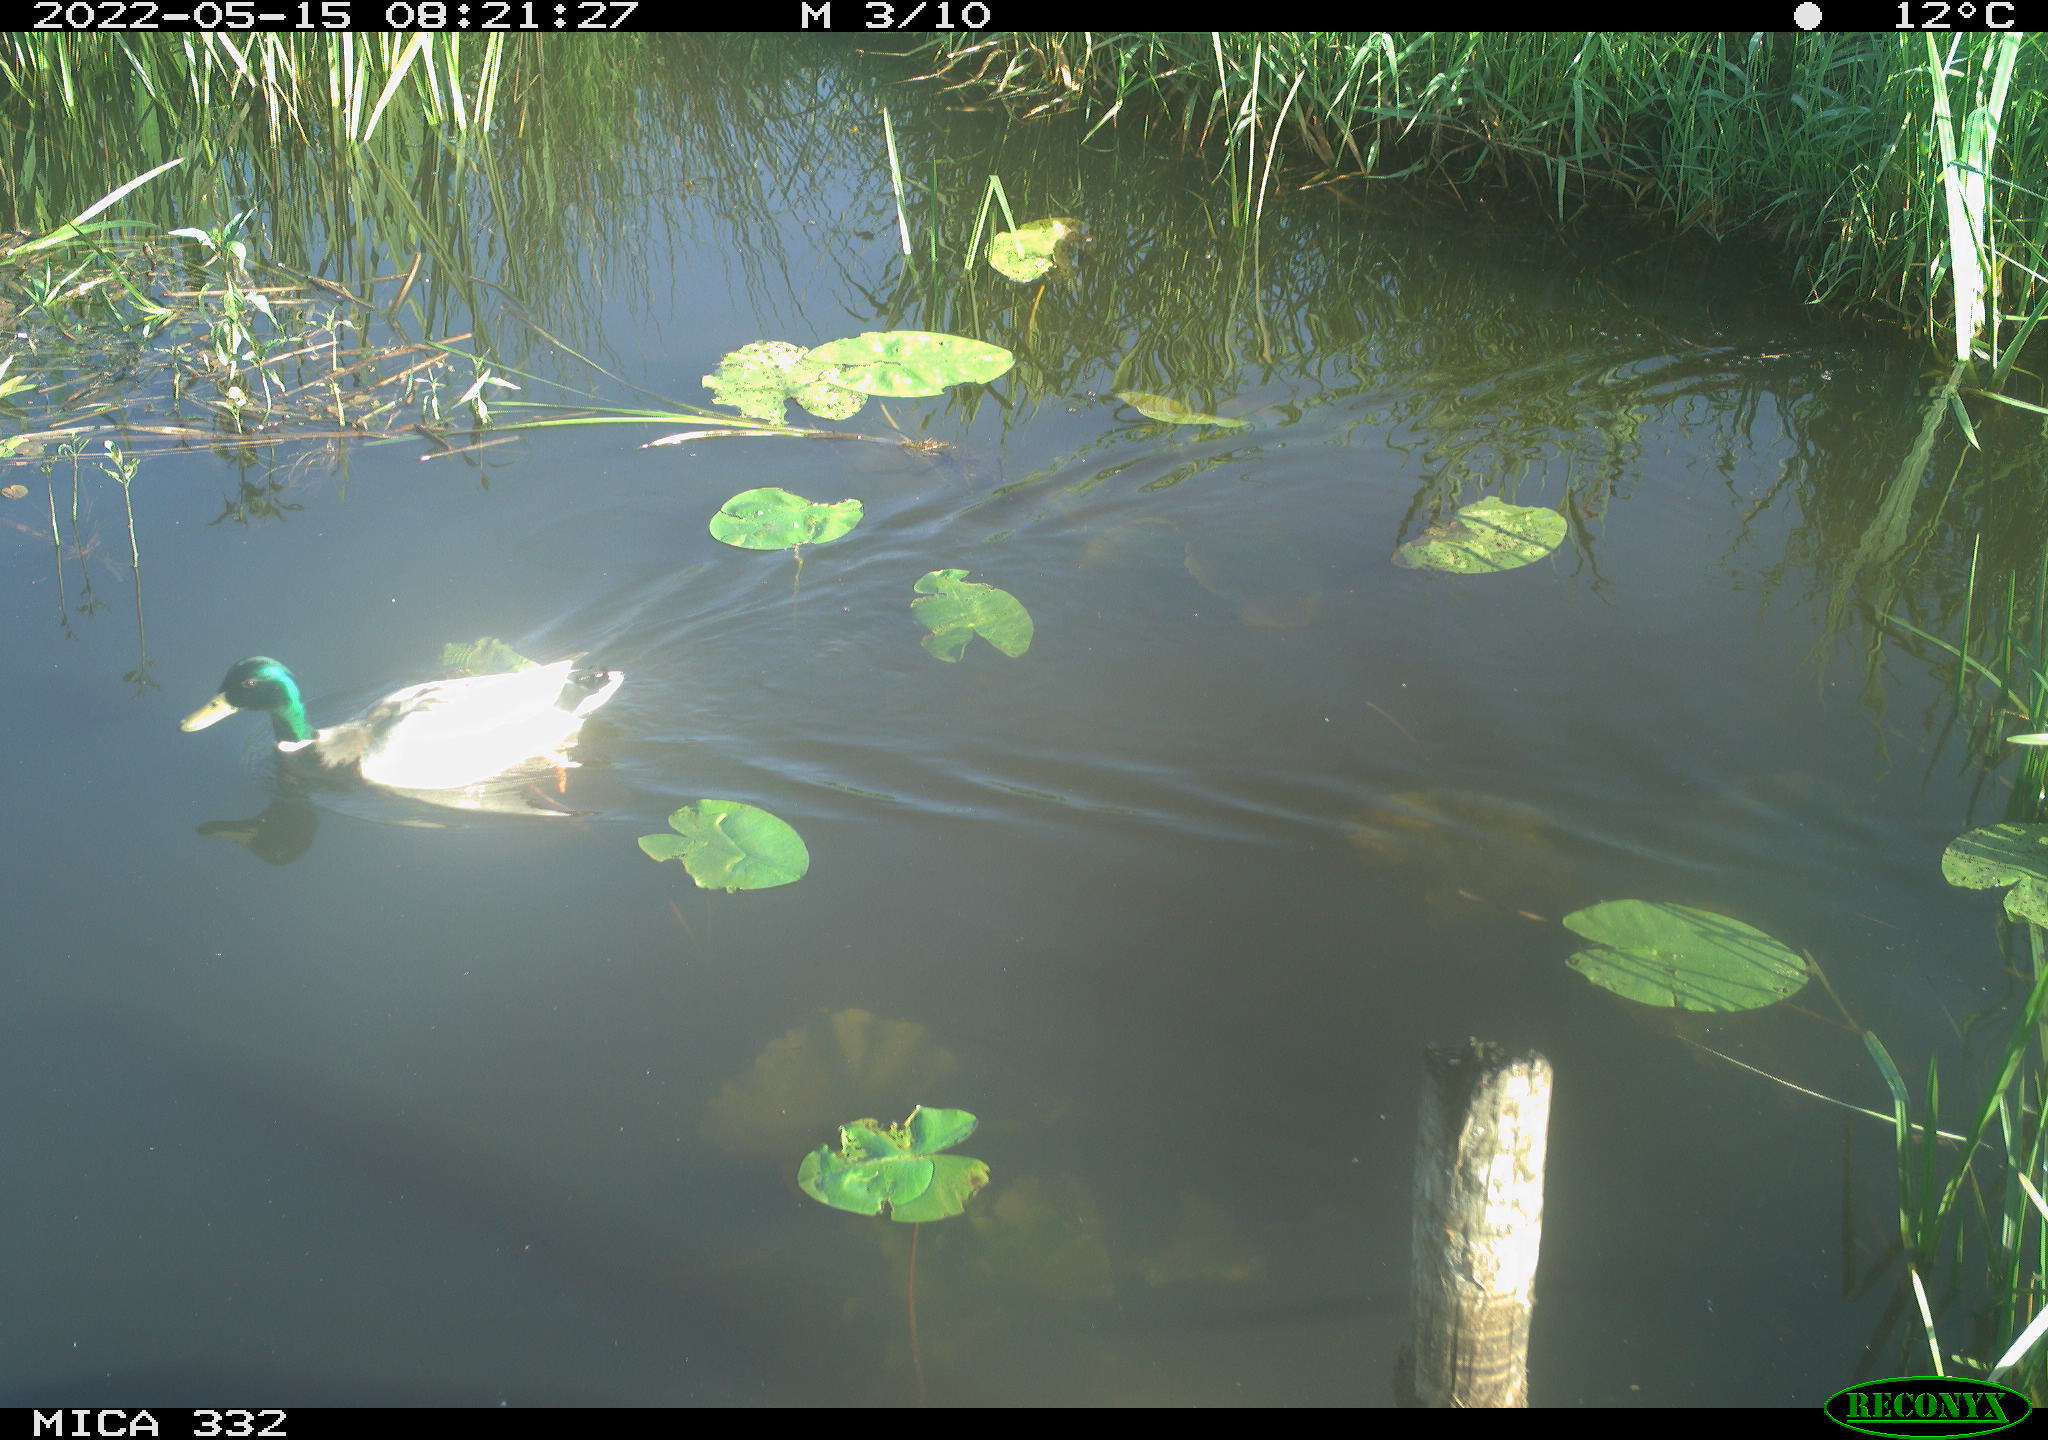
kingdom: Animalia
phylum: Chordata
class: Aves
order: Anseriformes
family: Anatidae
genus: Anas
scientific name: Anas platyrhynchos
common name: Mallard
